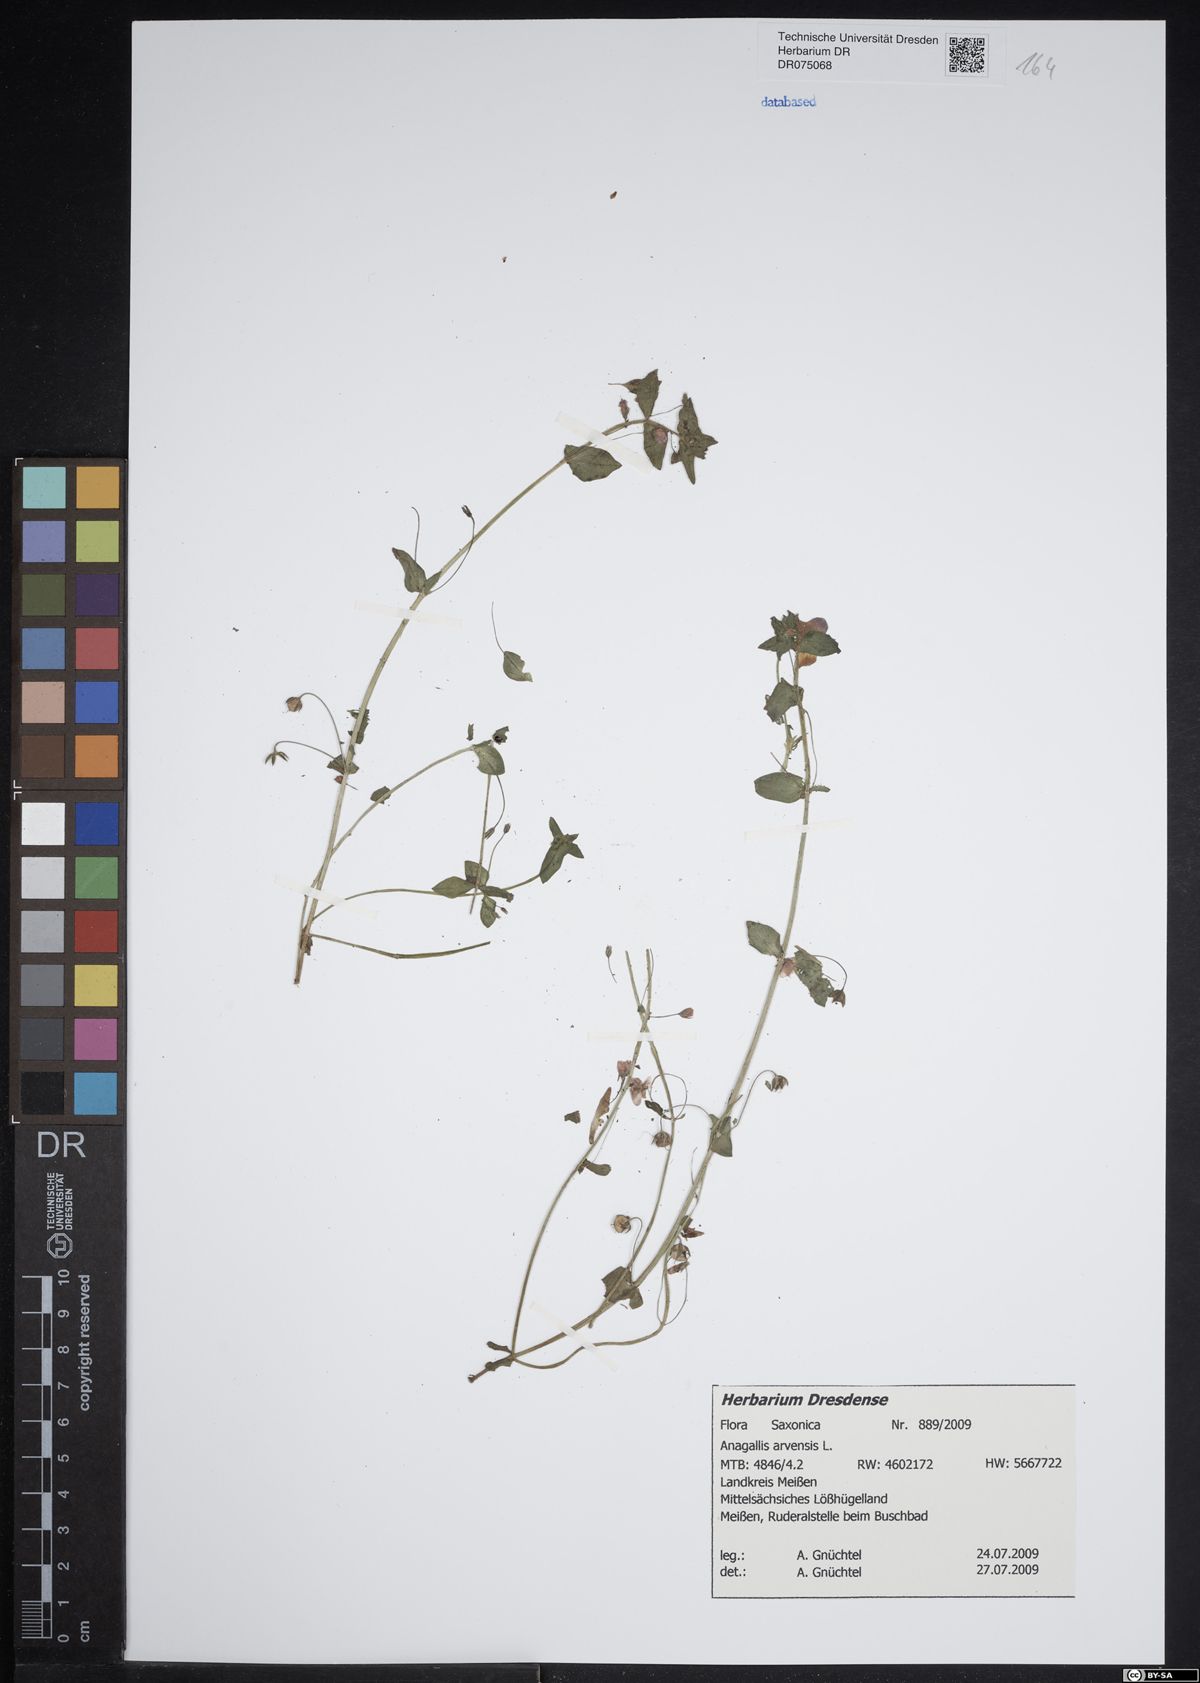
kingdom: Plantae
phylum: Tracheophyta
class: Magnoliopsida
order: Ericales
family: Primulaceae
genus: Lysimachia
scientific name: Lysimachia arvensis
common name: Scarlet pimpernel
